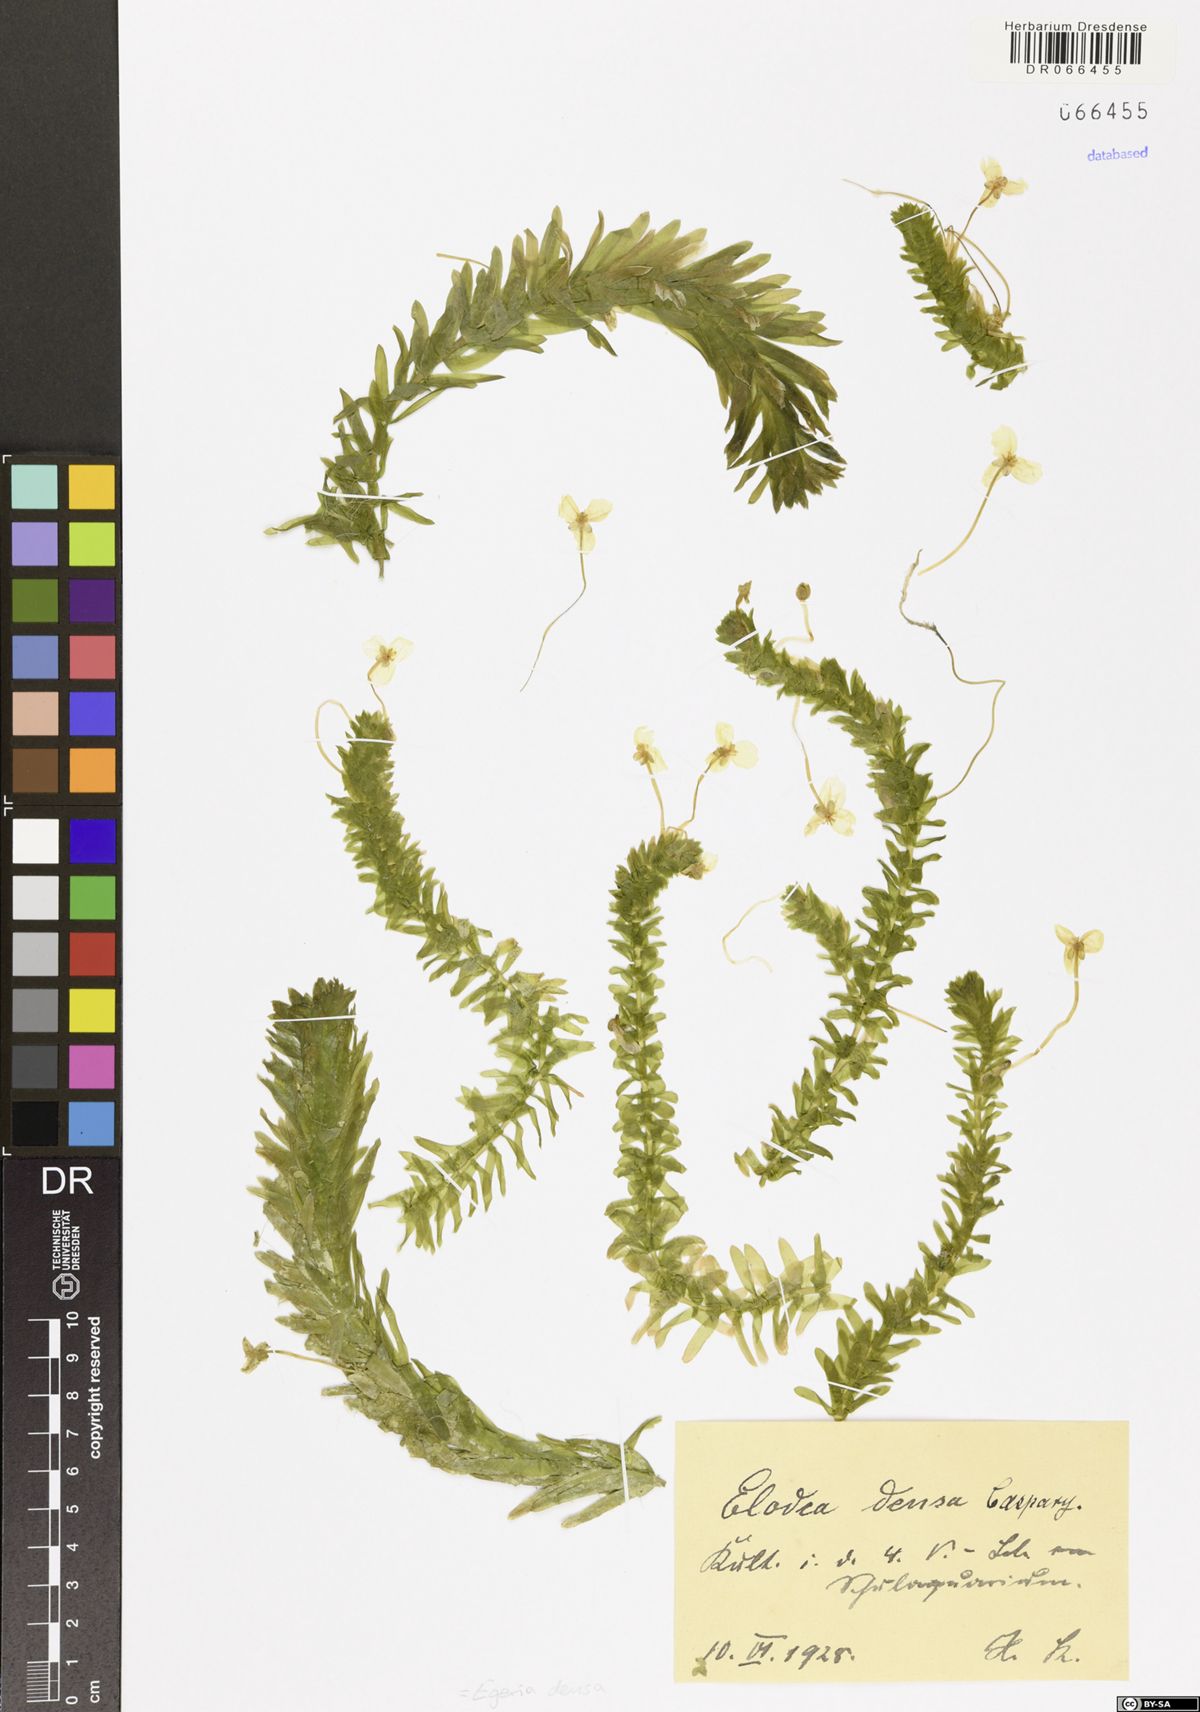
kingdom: Plantae
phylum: Tracheophyta
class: Liliopsida
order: Alismatales
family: Hydrocharitaceae
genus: Elodea
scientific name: Elodea densa
